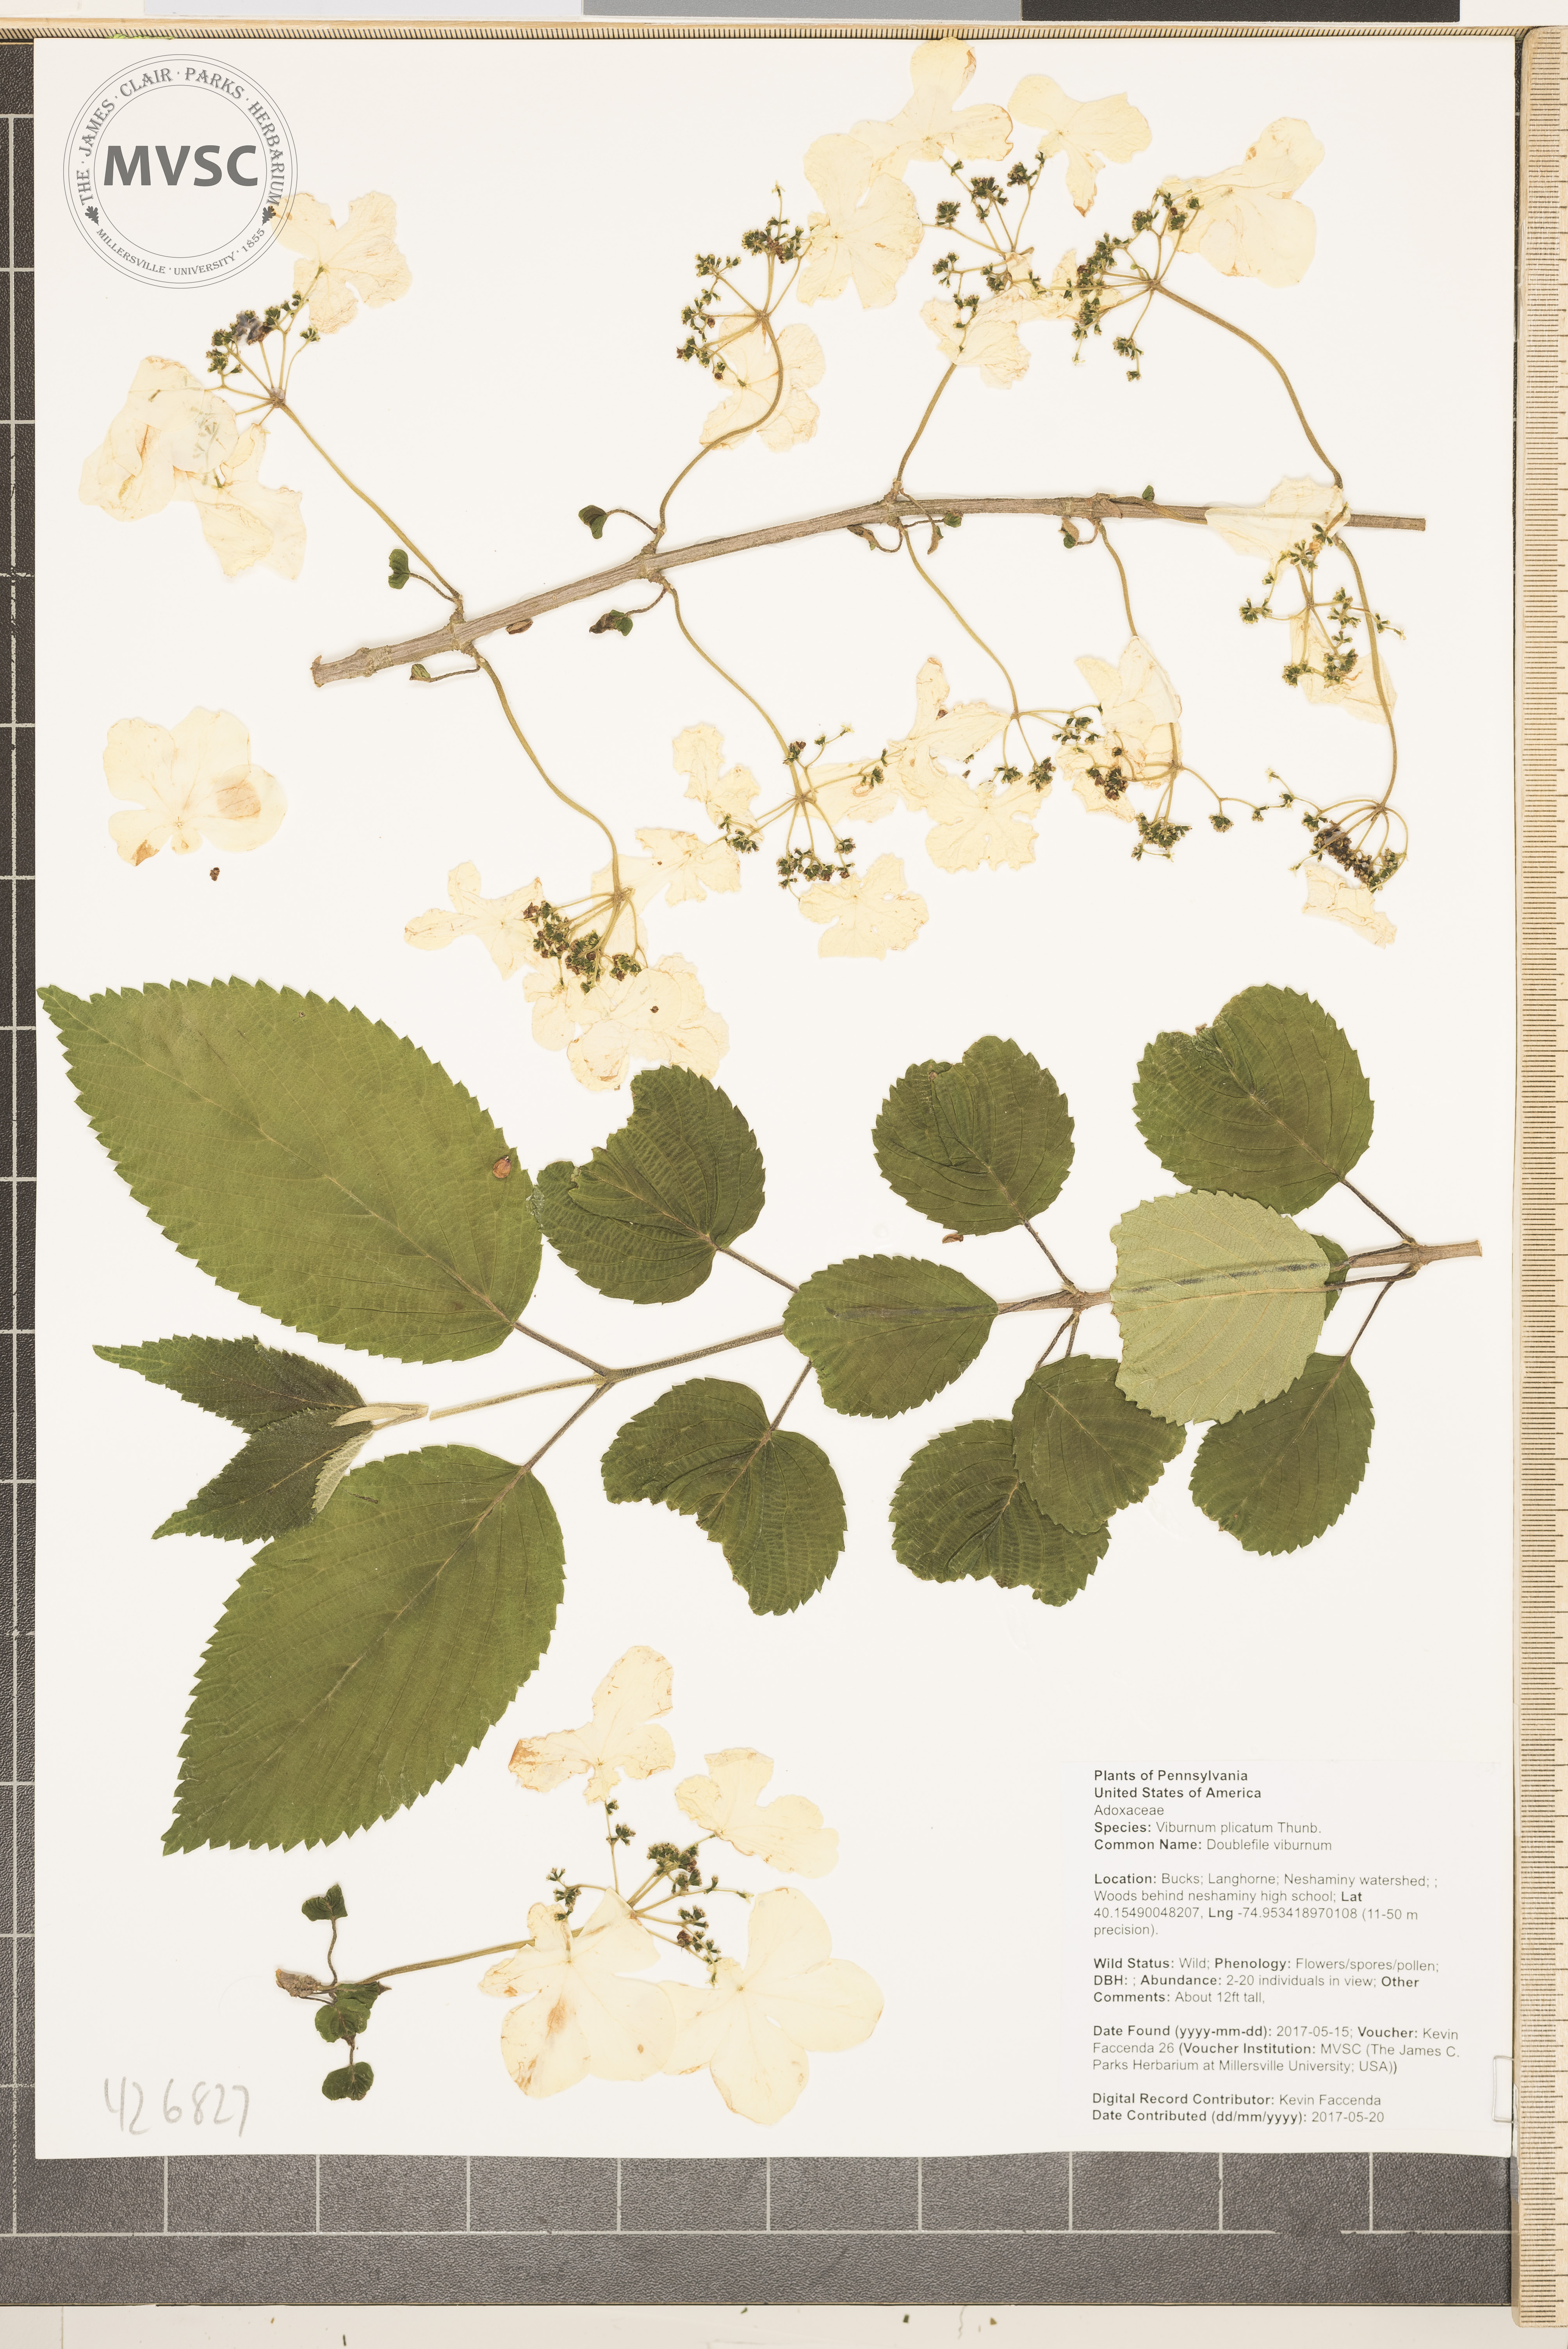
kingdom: Plantae
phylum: Tracheophyta
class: Magnoliopsida
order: Dipsacales
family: Viburnaceae
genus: Viburnum
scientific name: Viburnum plicatum
